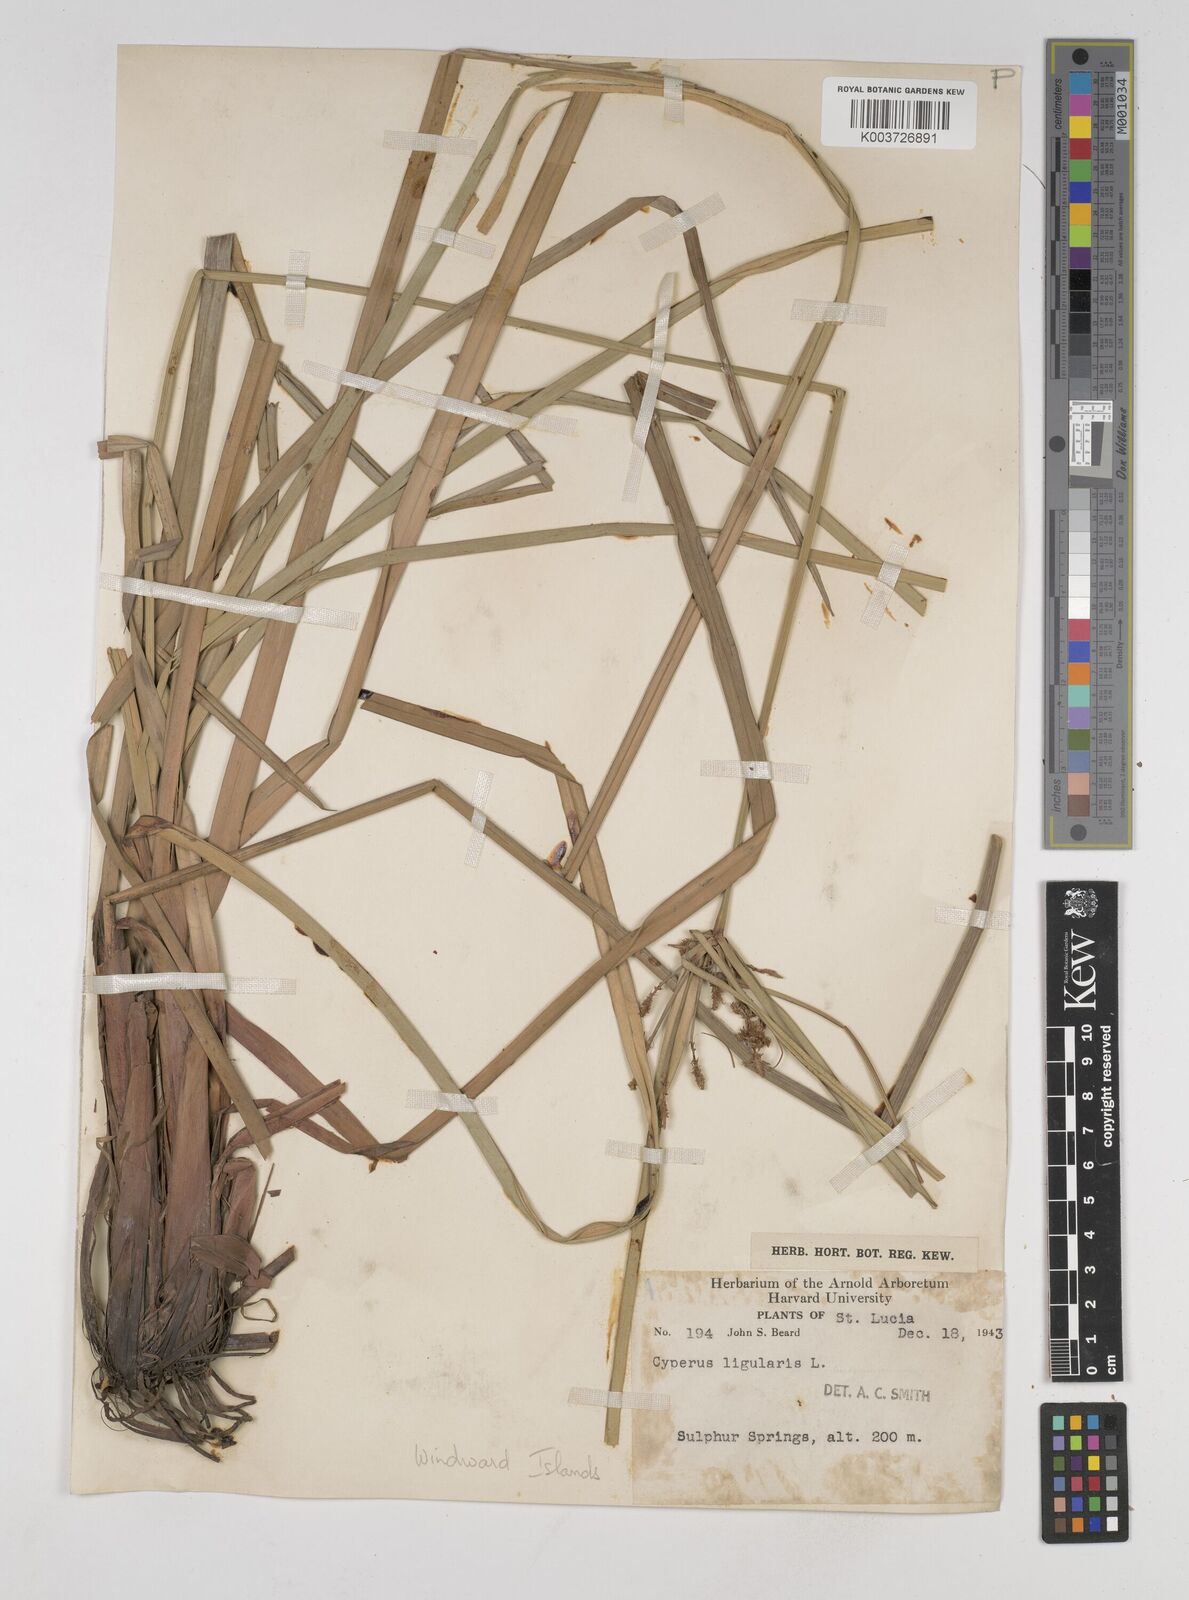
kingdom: Plantae
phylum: Tracheophyta
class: Liliopsida
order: Poales
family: Cyperaceae
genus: Cyperus
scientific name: Cyperus ligularis
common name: Swamp flat sedge
